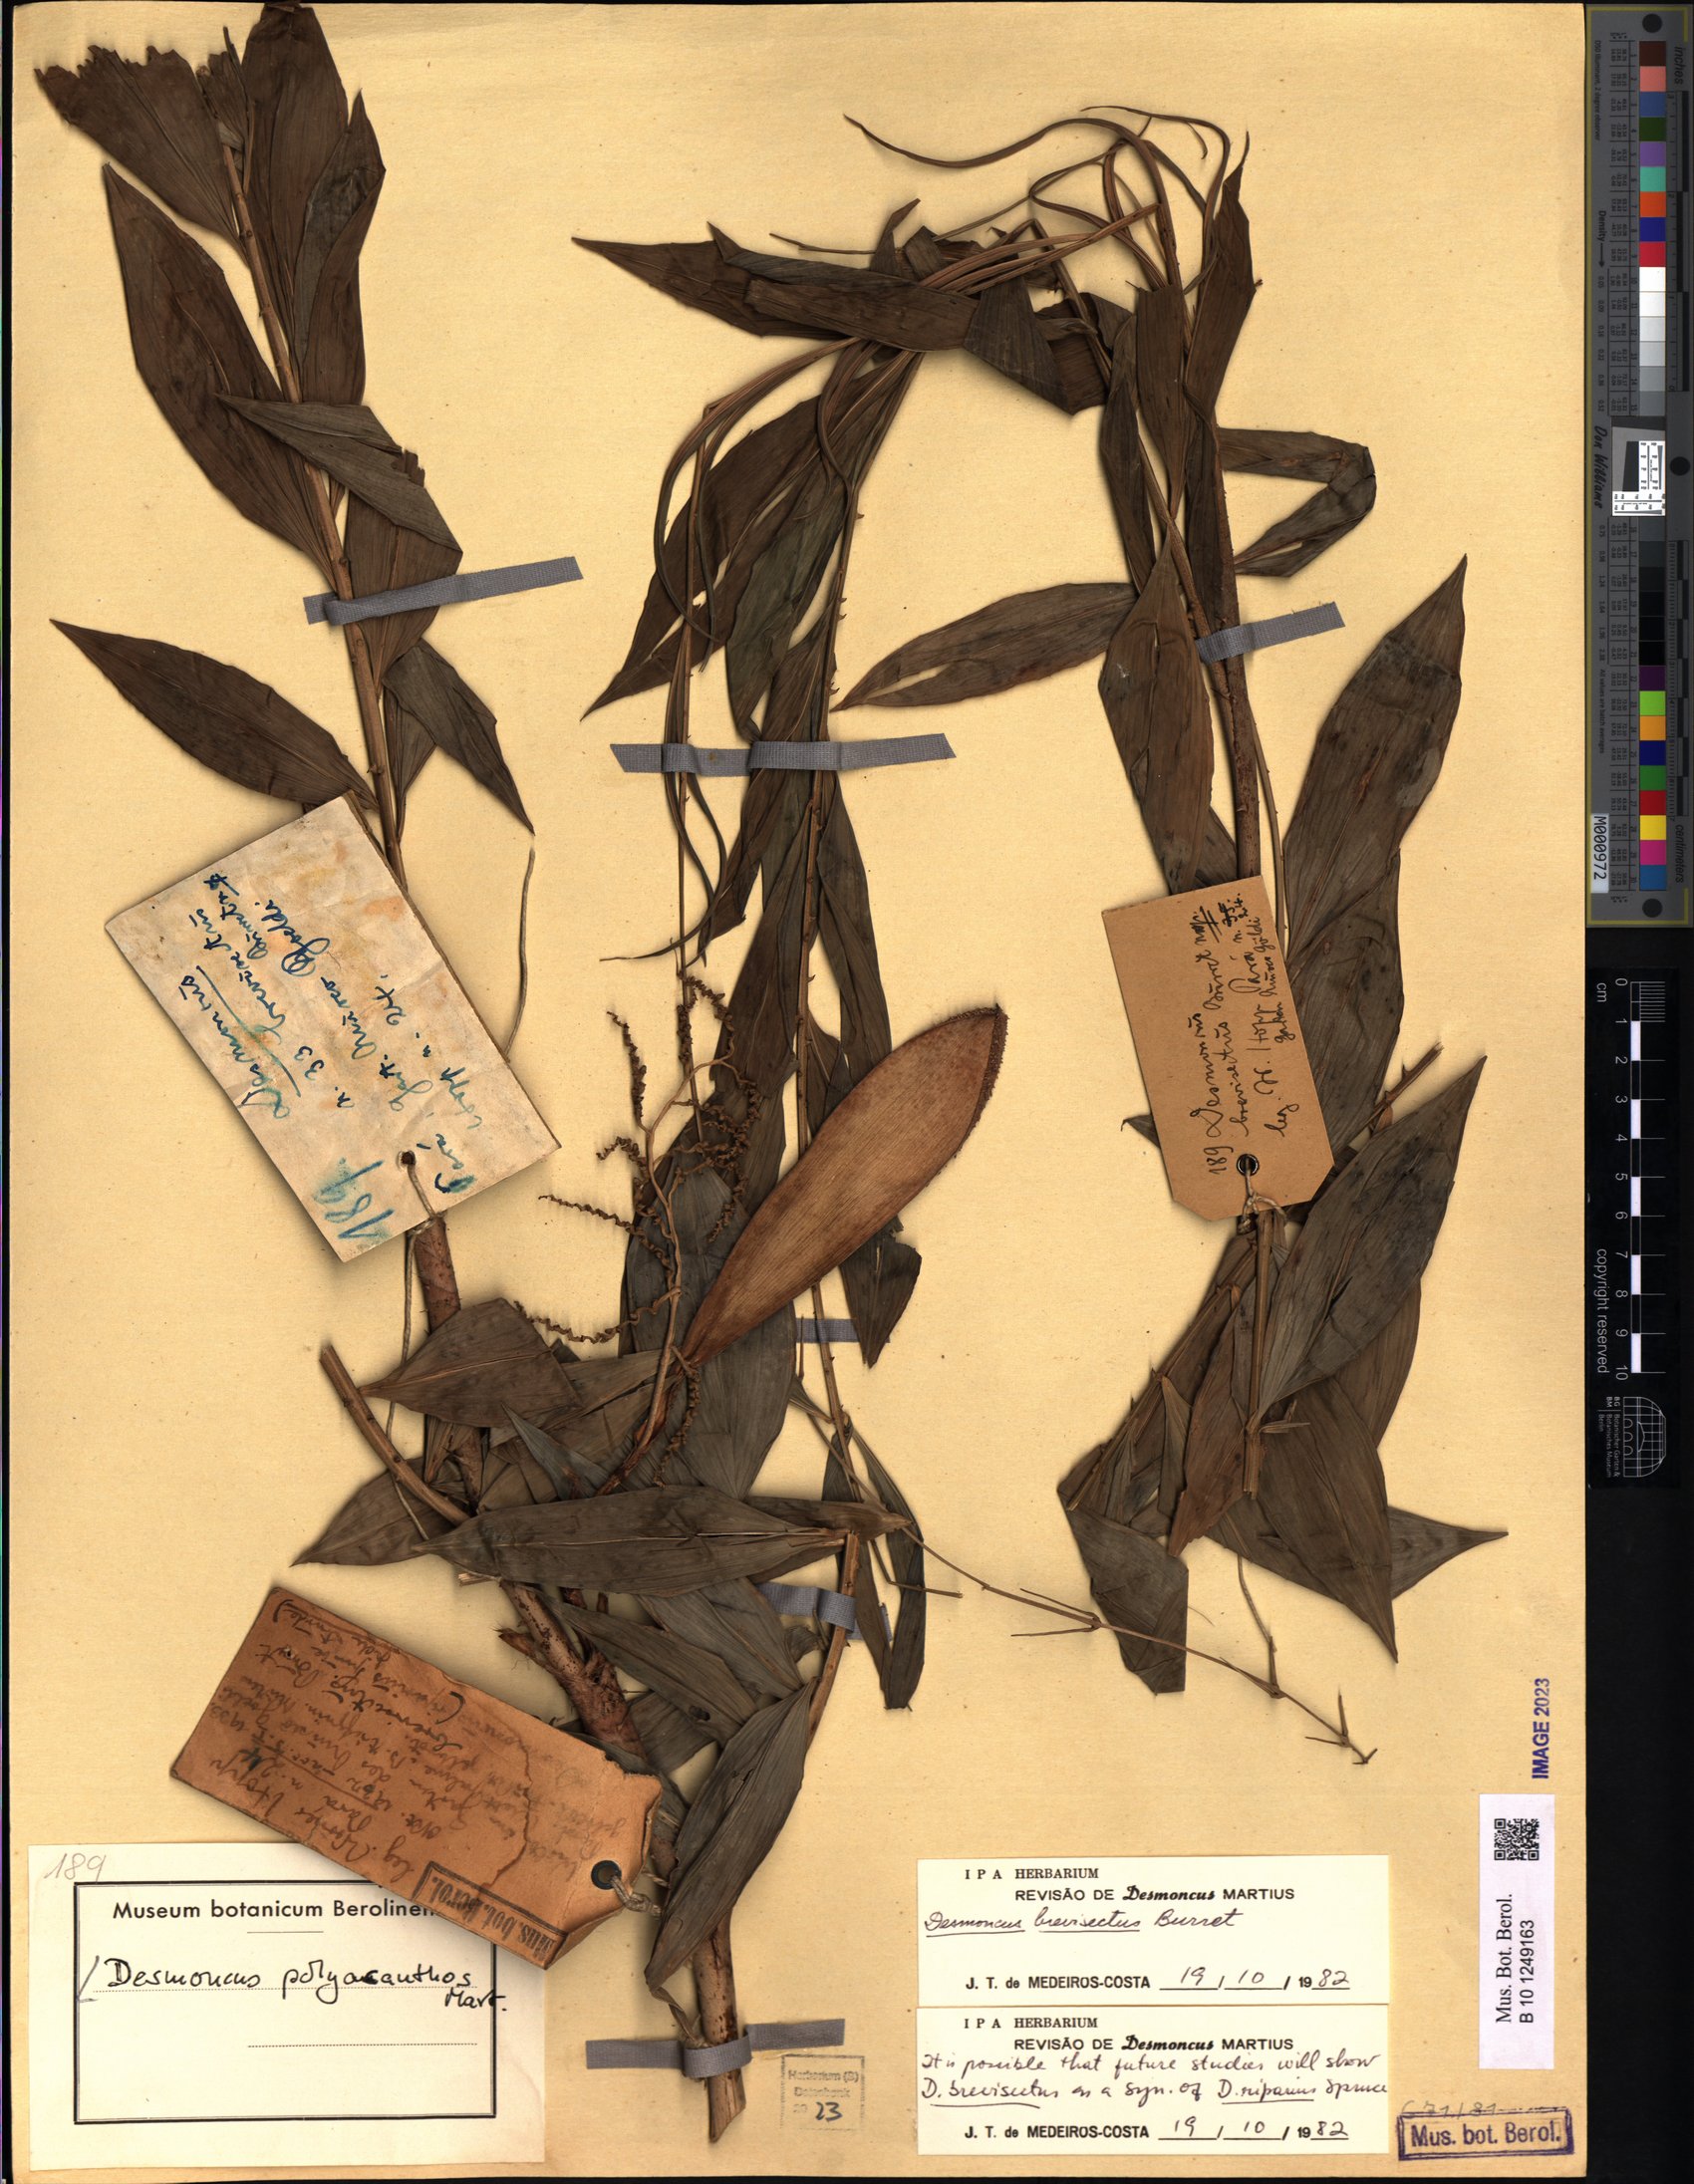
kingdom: Plantae
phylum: Tracheophyta
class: Liliopsida
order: Arecales
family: Arecaceae
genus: Desmoncus
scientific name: Desmoncus polyacanthos
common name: Suriname bramble palm
